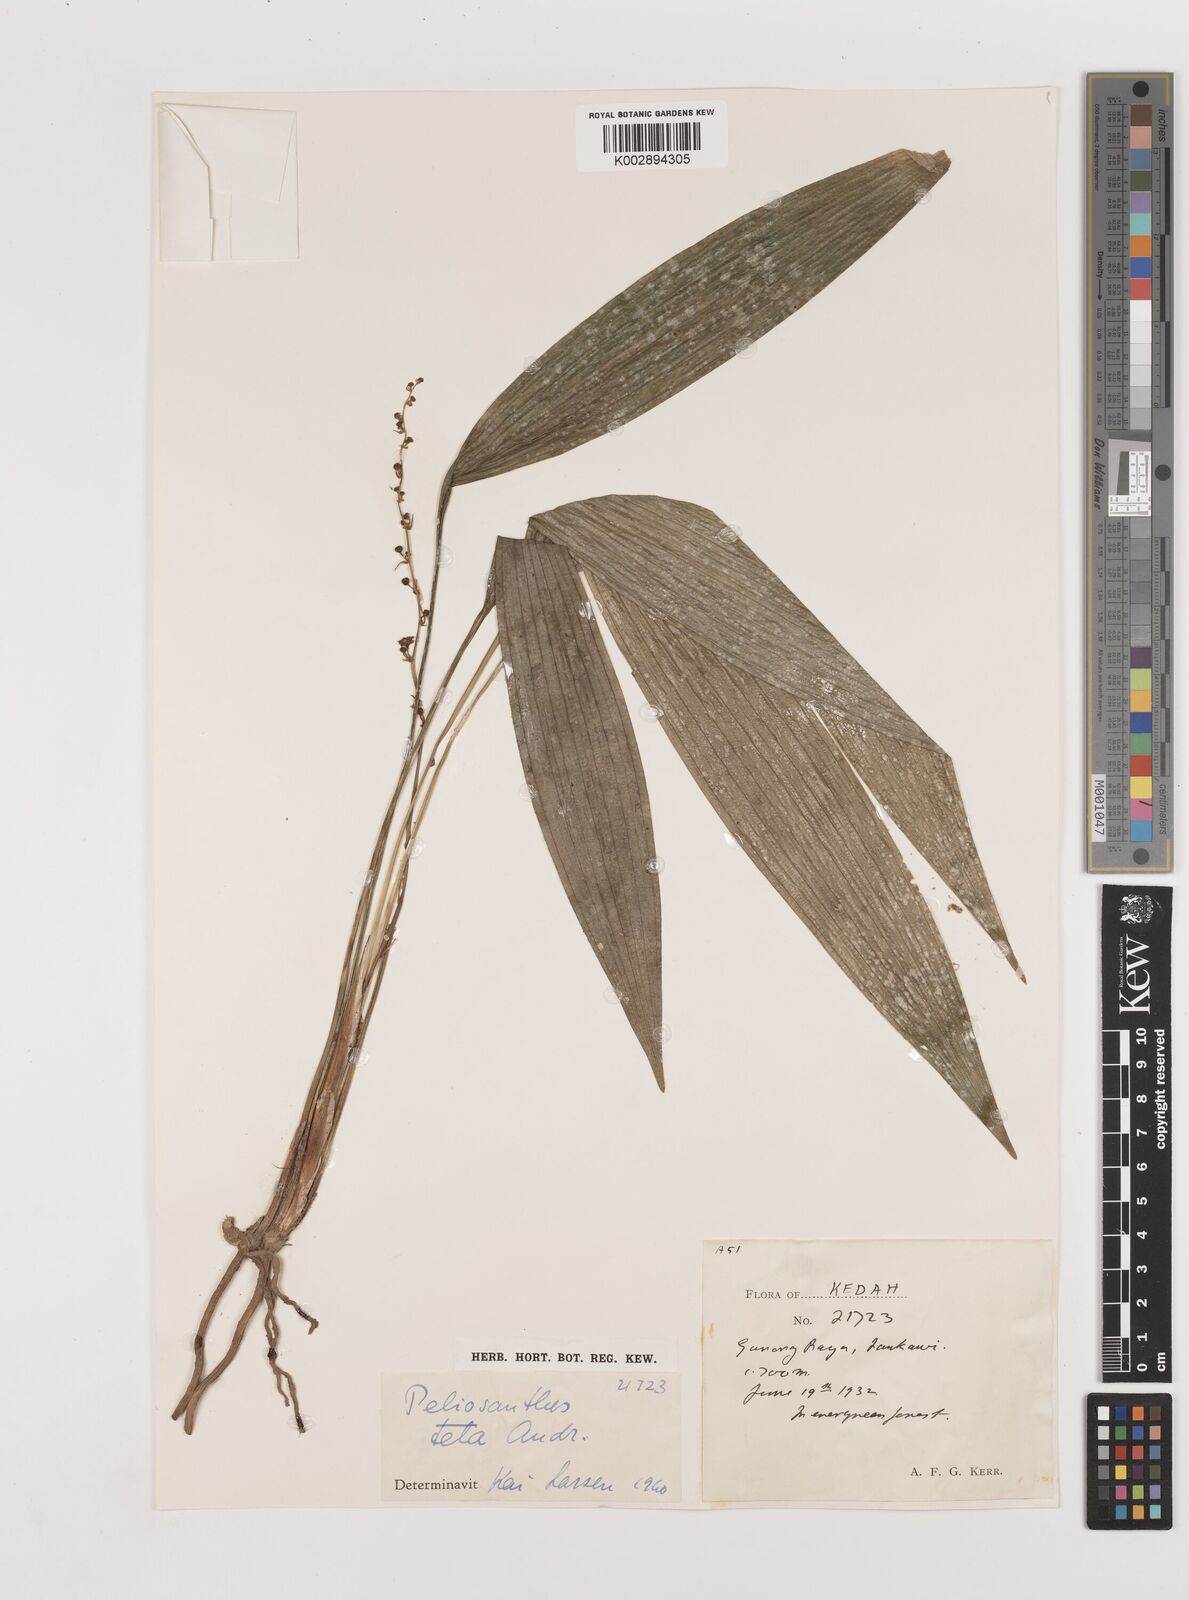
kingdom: Plantae
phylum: Tracheophyta
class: Liliopsida
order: Asparagales
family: Asparagaceae
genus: Peliosanthes
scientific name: Peliosanthes teta
